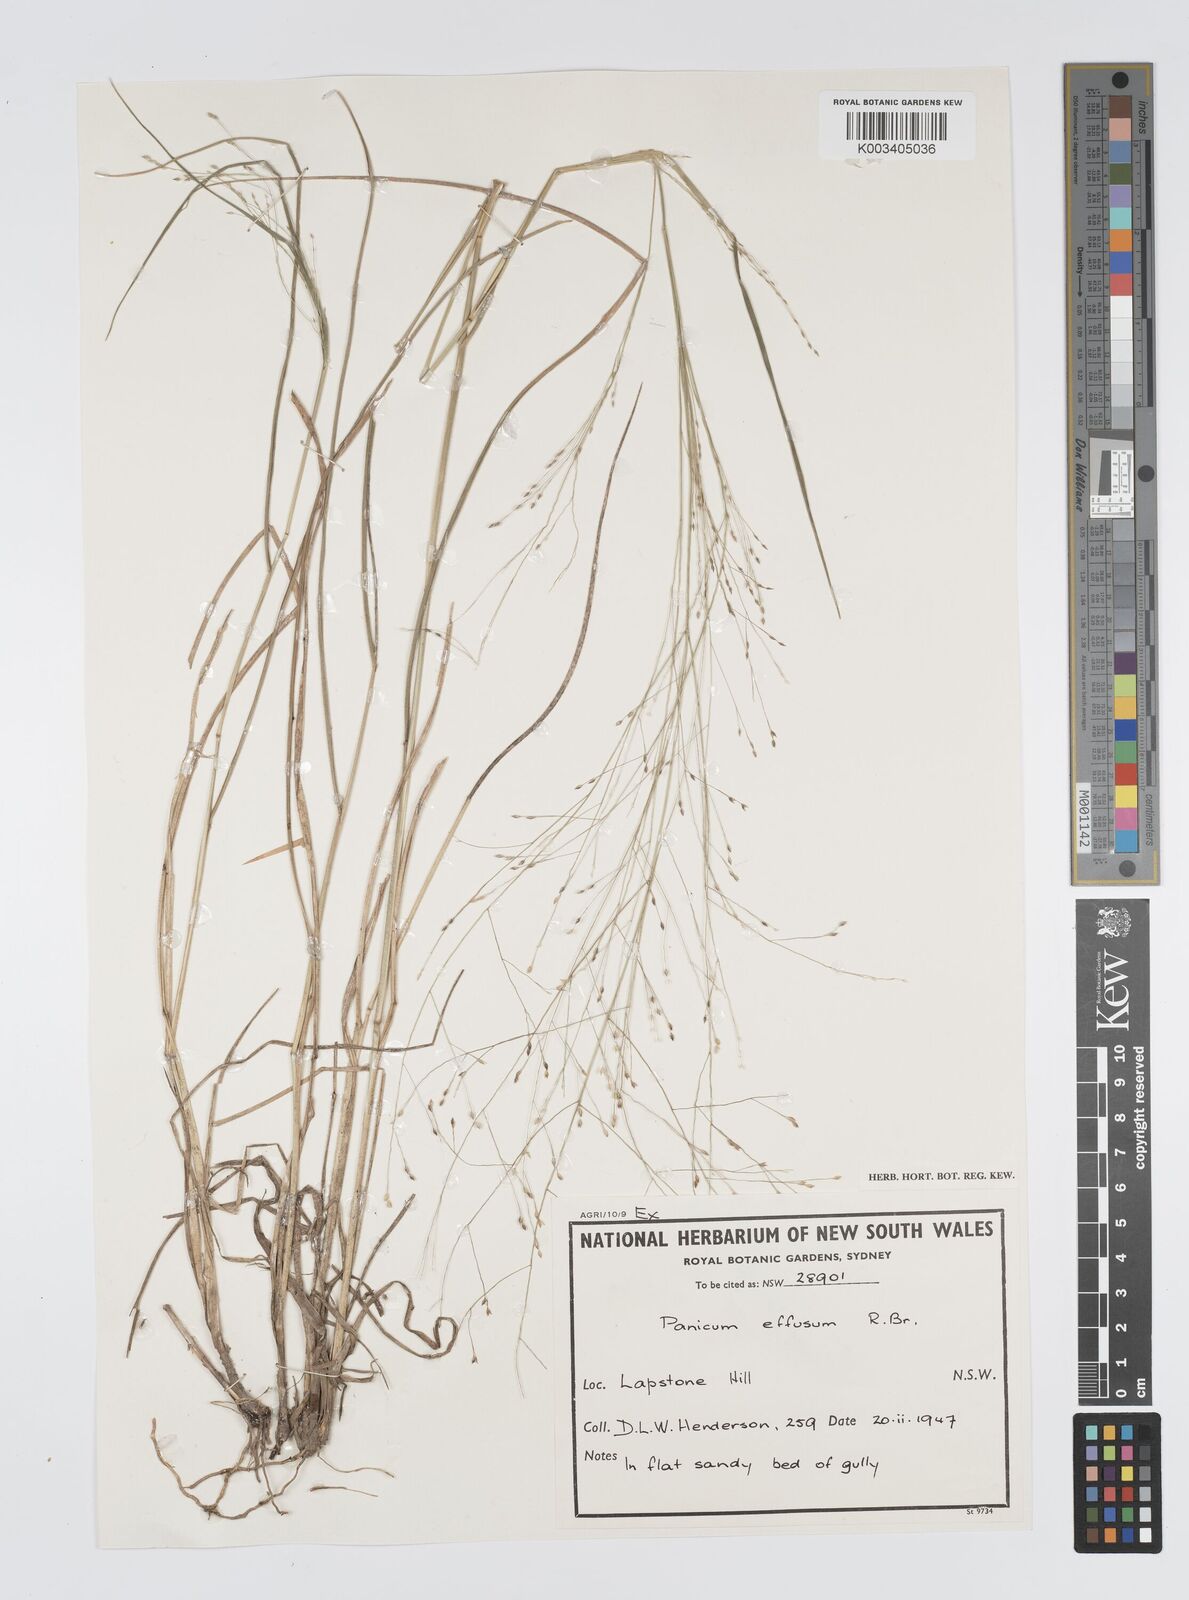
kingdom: Plantae
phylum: Tracheophyta
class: Liliopsida
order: Poales
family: Poaceae
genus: Panicum
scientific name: Panicum effusum
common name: Hairy panic grass
